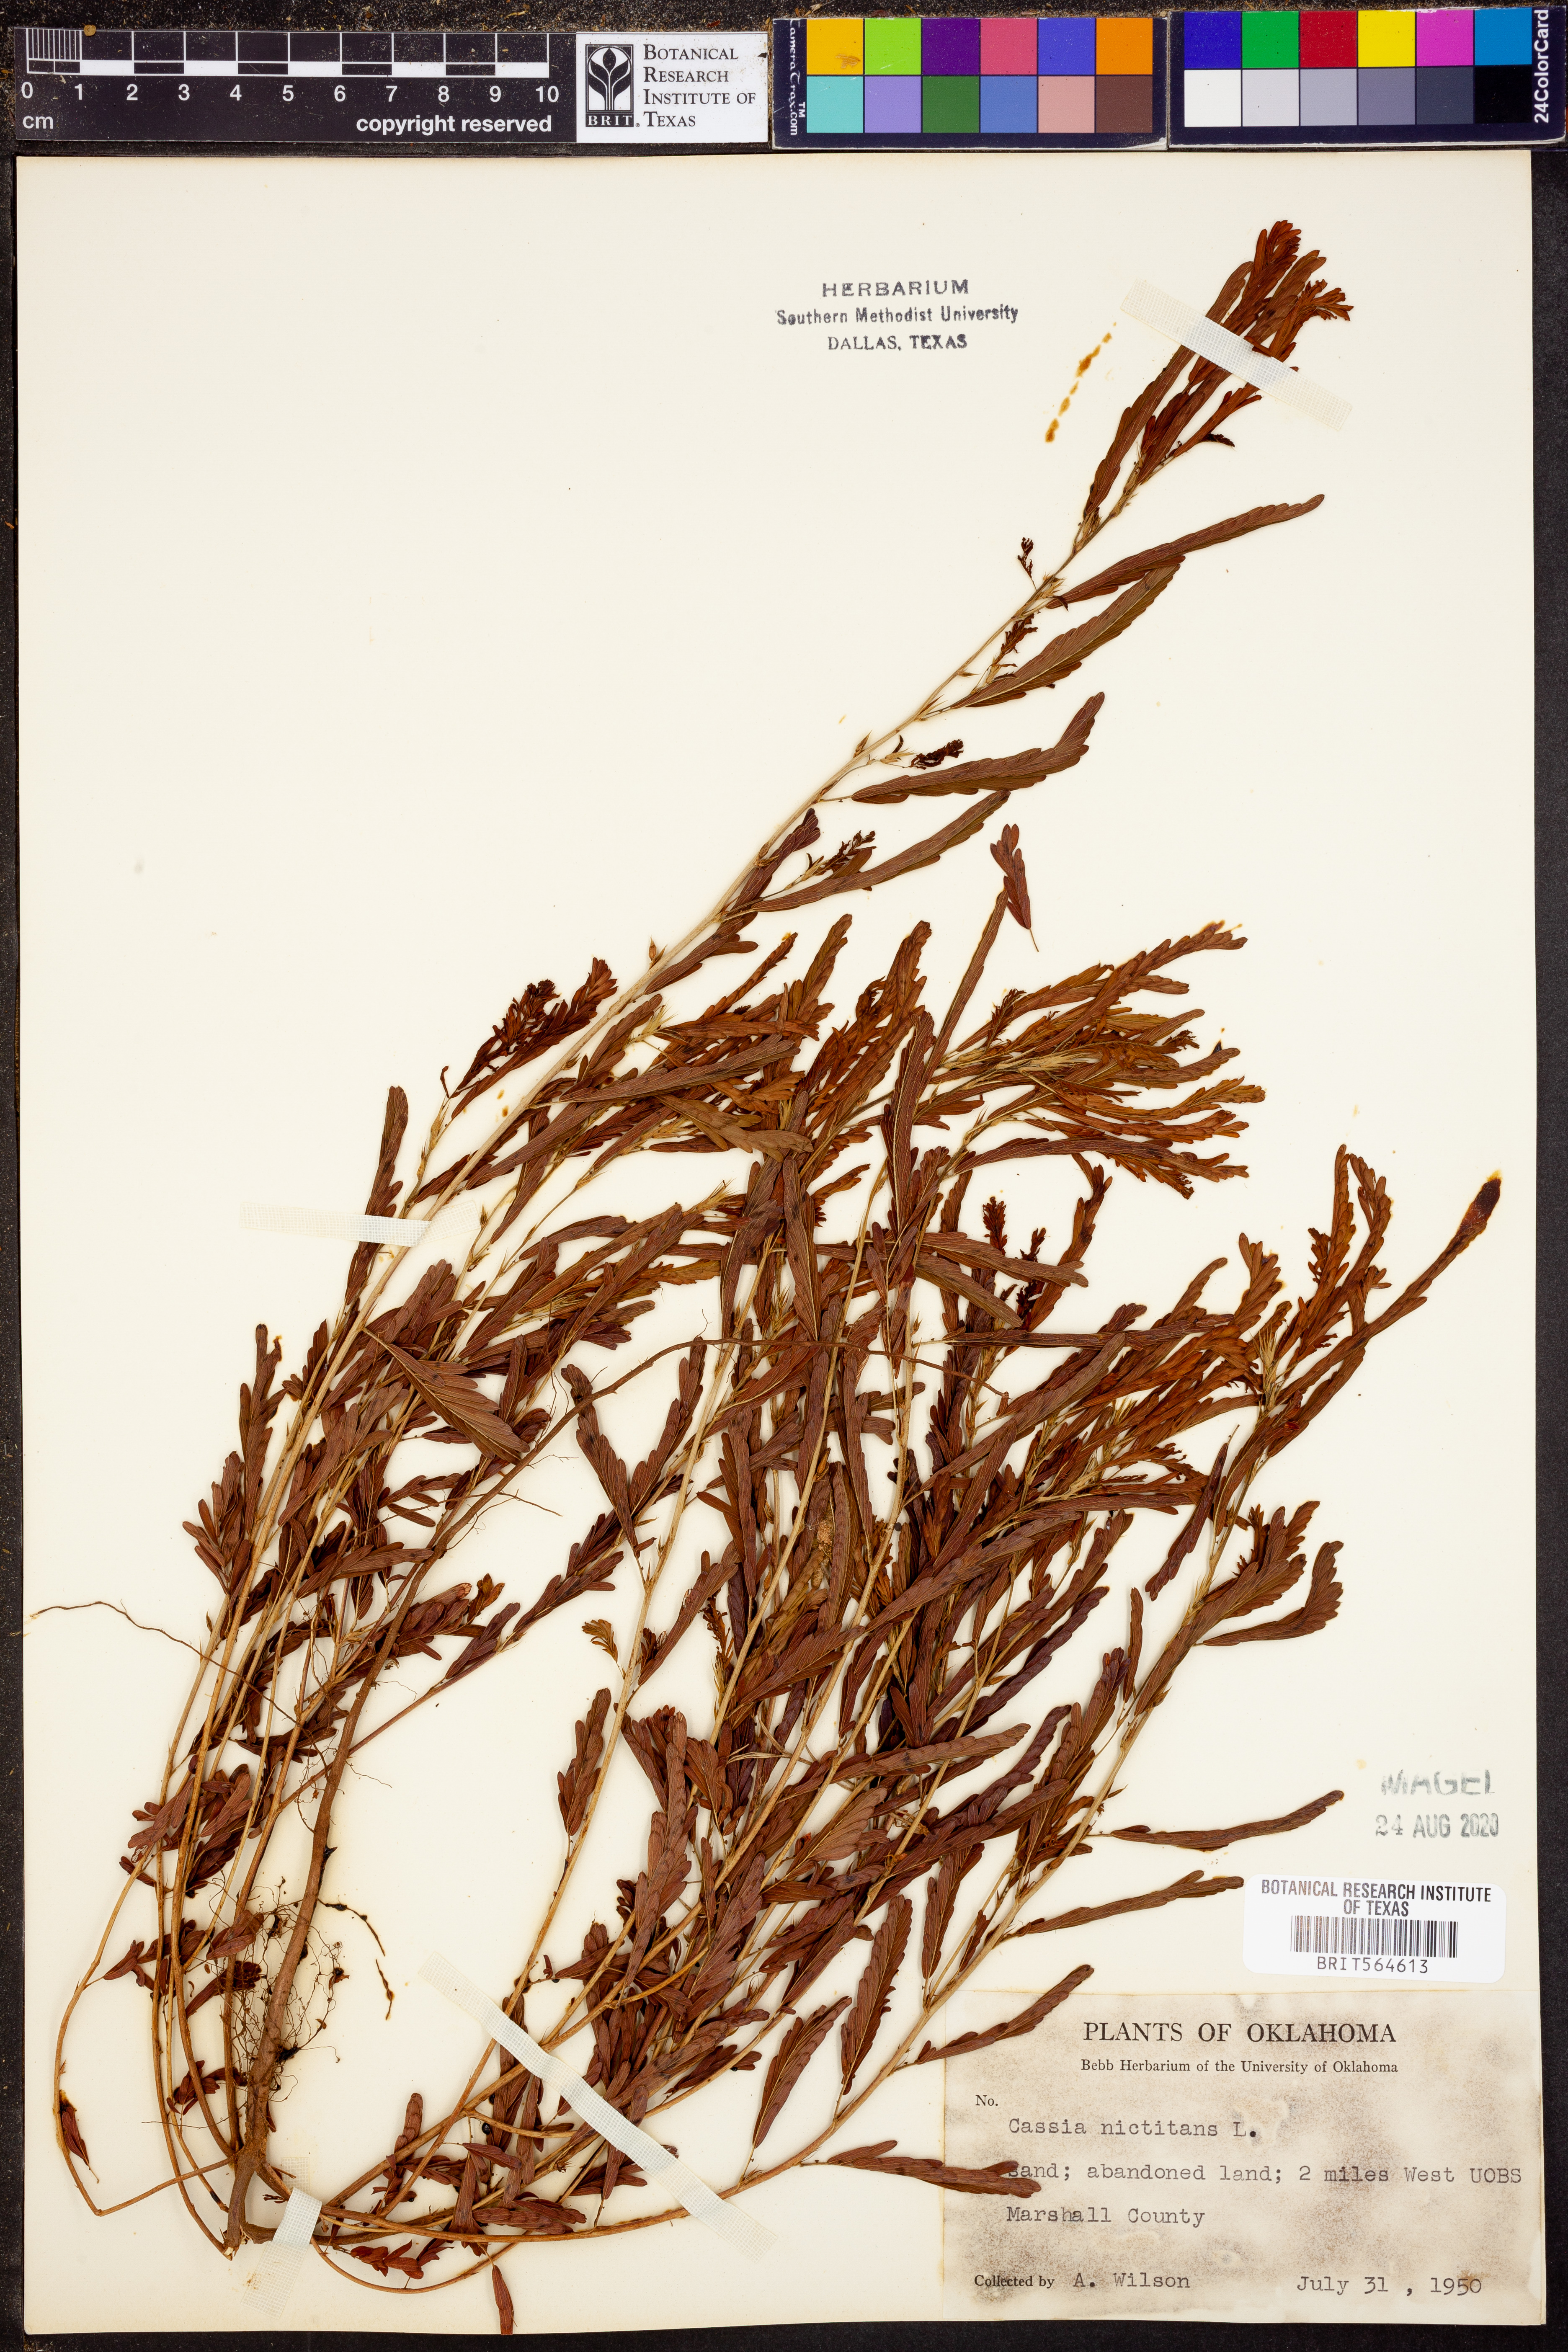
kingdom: Plantae
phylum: Tracheophyta
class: Magnoliopsida
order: Fabales
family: Fabaceae
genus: Chamaecrista
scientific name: Chamaecrista nictitans
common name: Sensitive cassia
